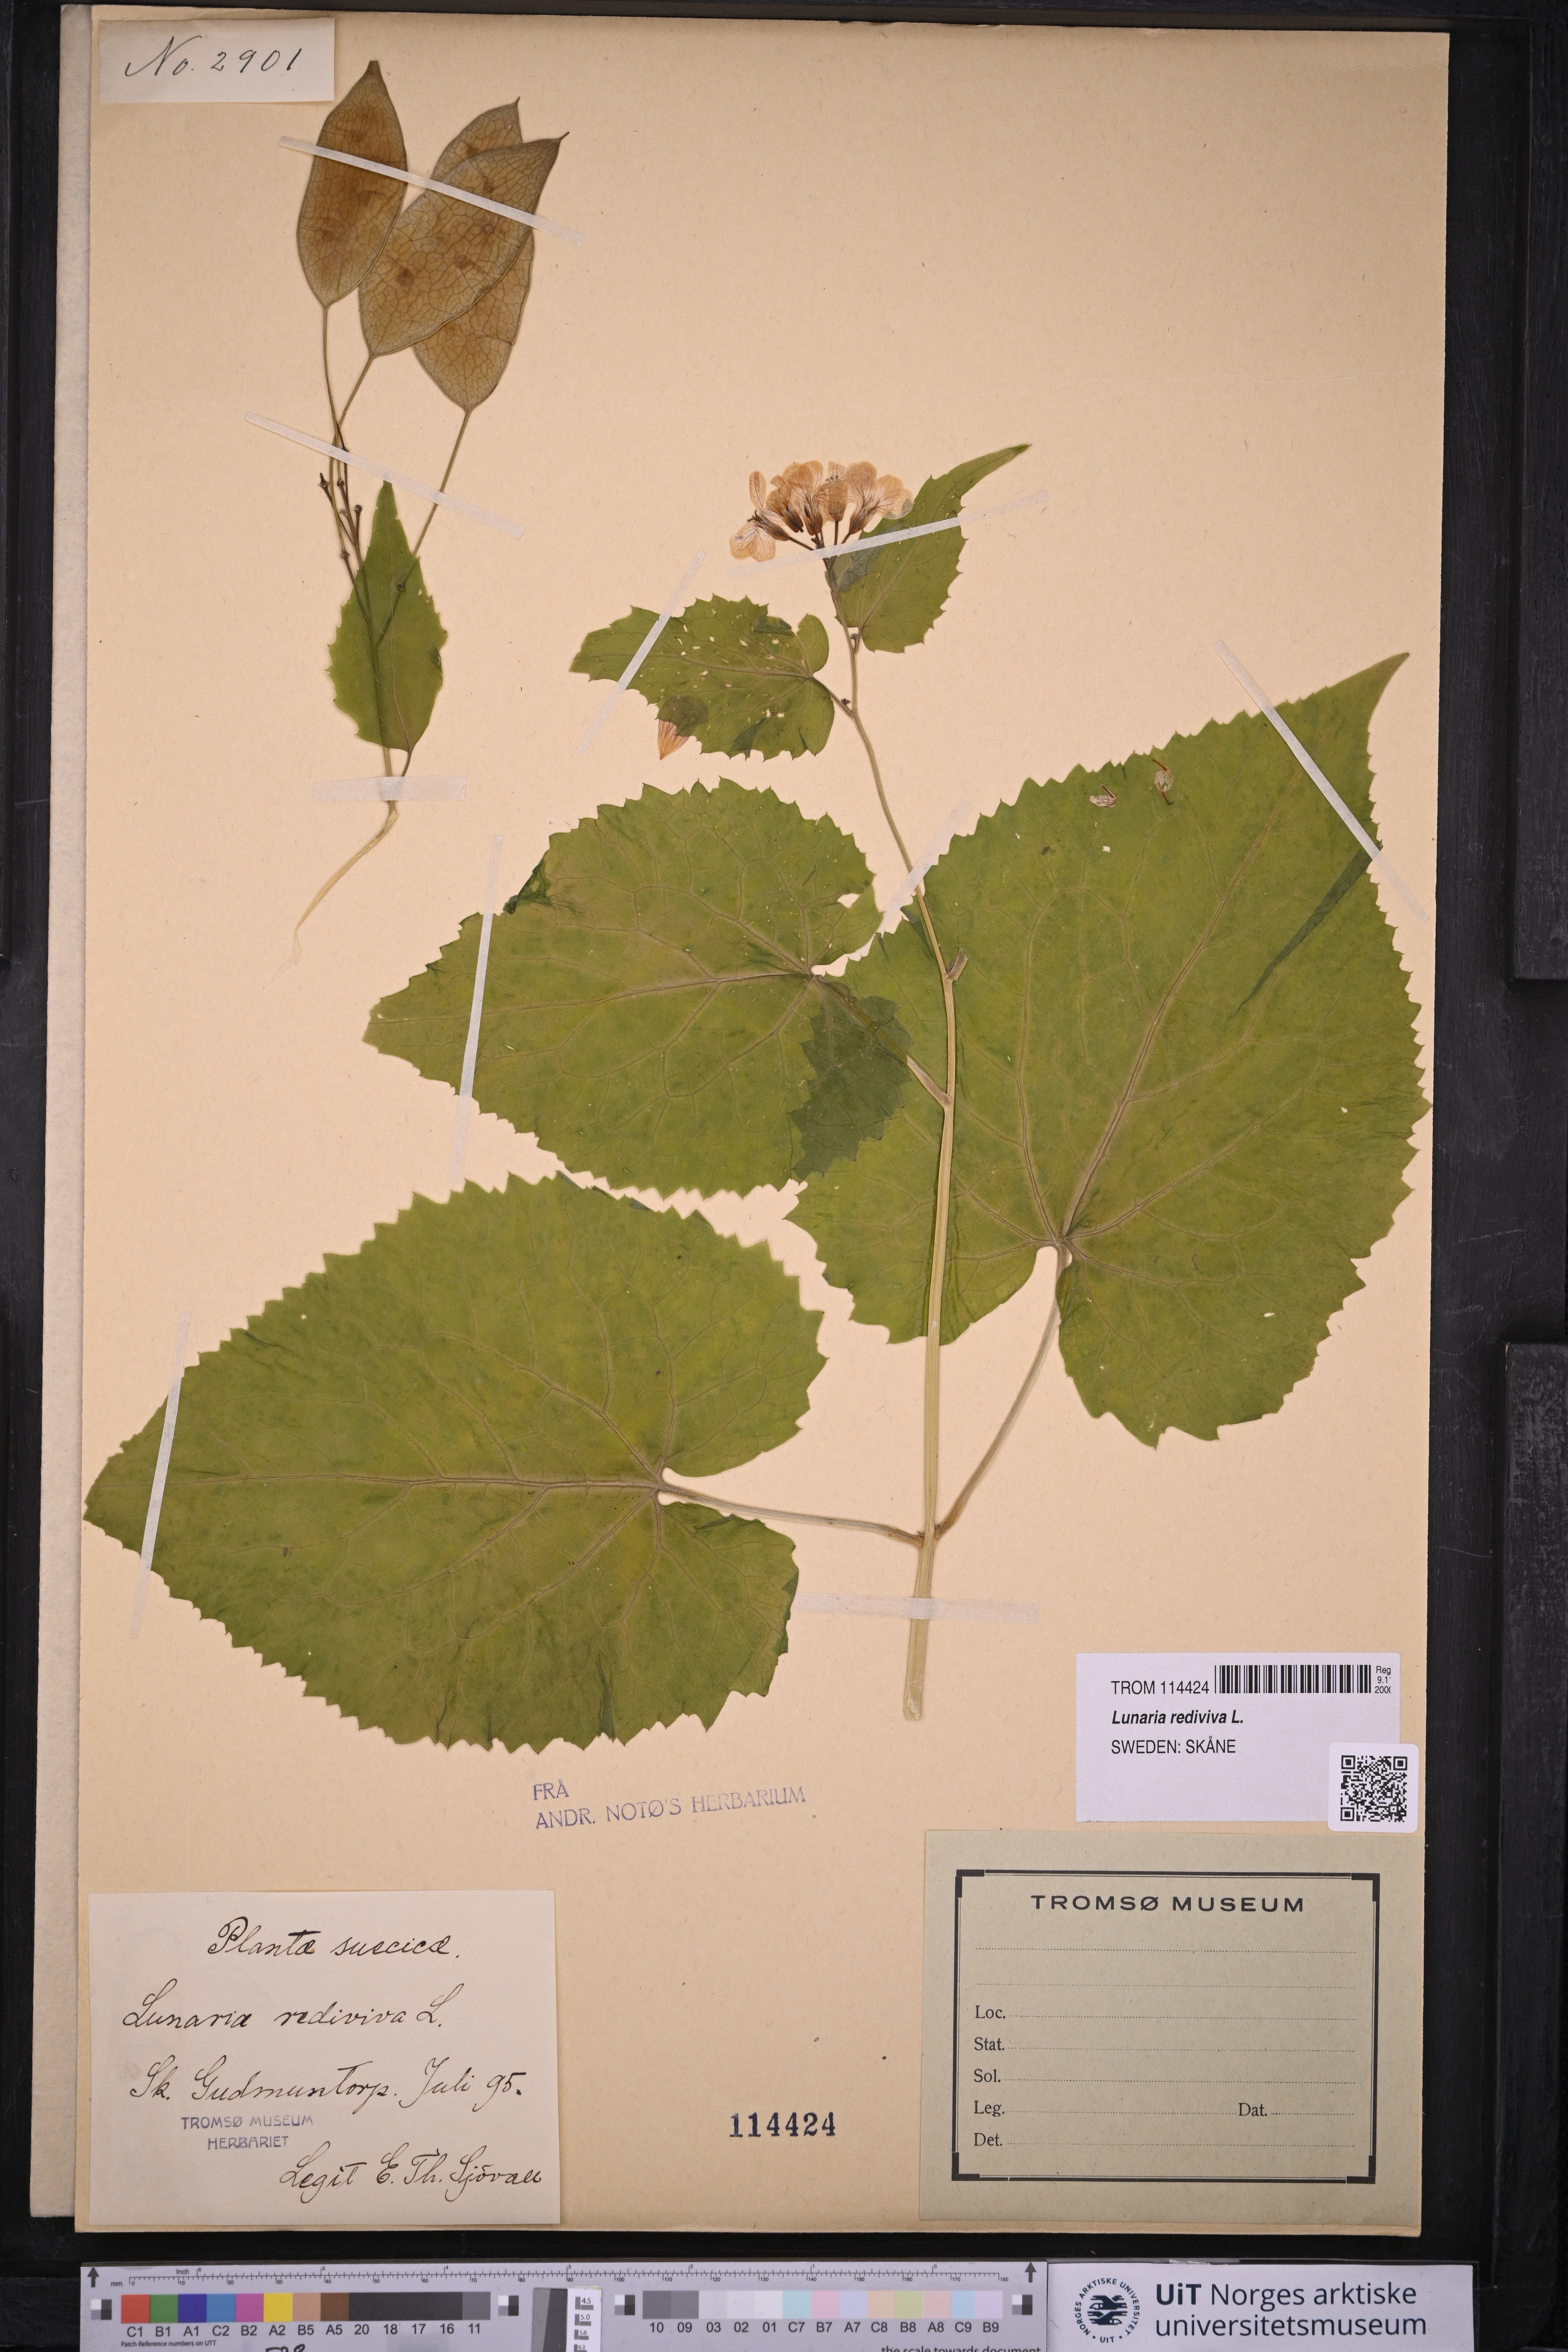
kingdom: Plantae
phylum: Tracheophyta
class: Magnoliopsida
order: Brassicales
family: Brassicaceae
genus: Lunaria
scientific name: Lunaria rediviva
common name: Perennial honesty
